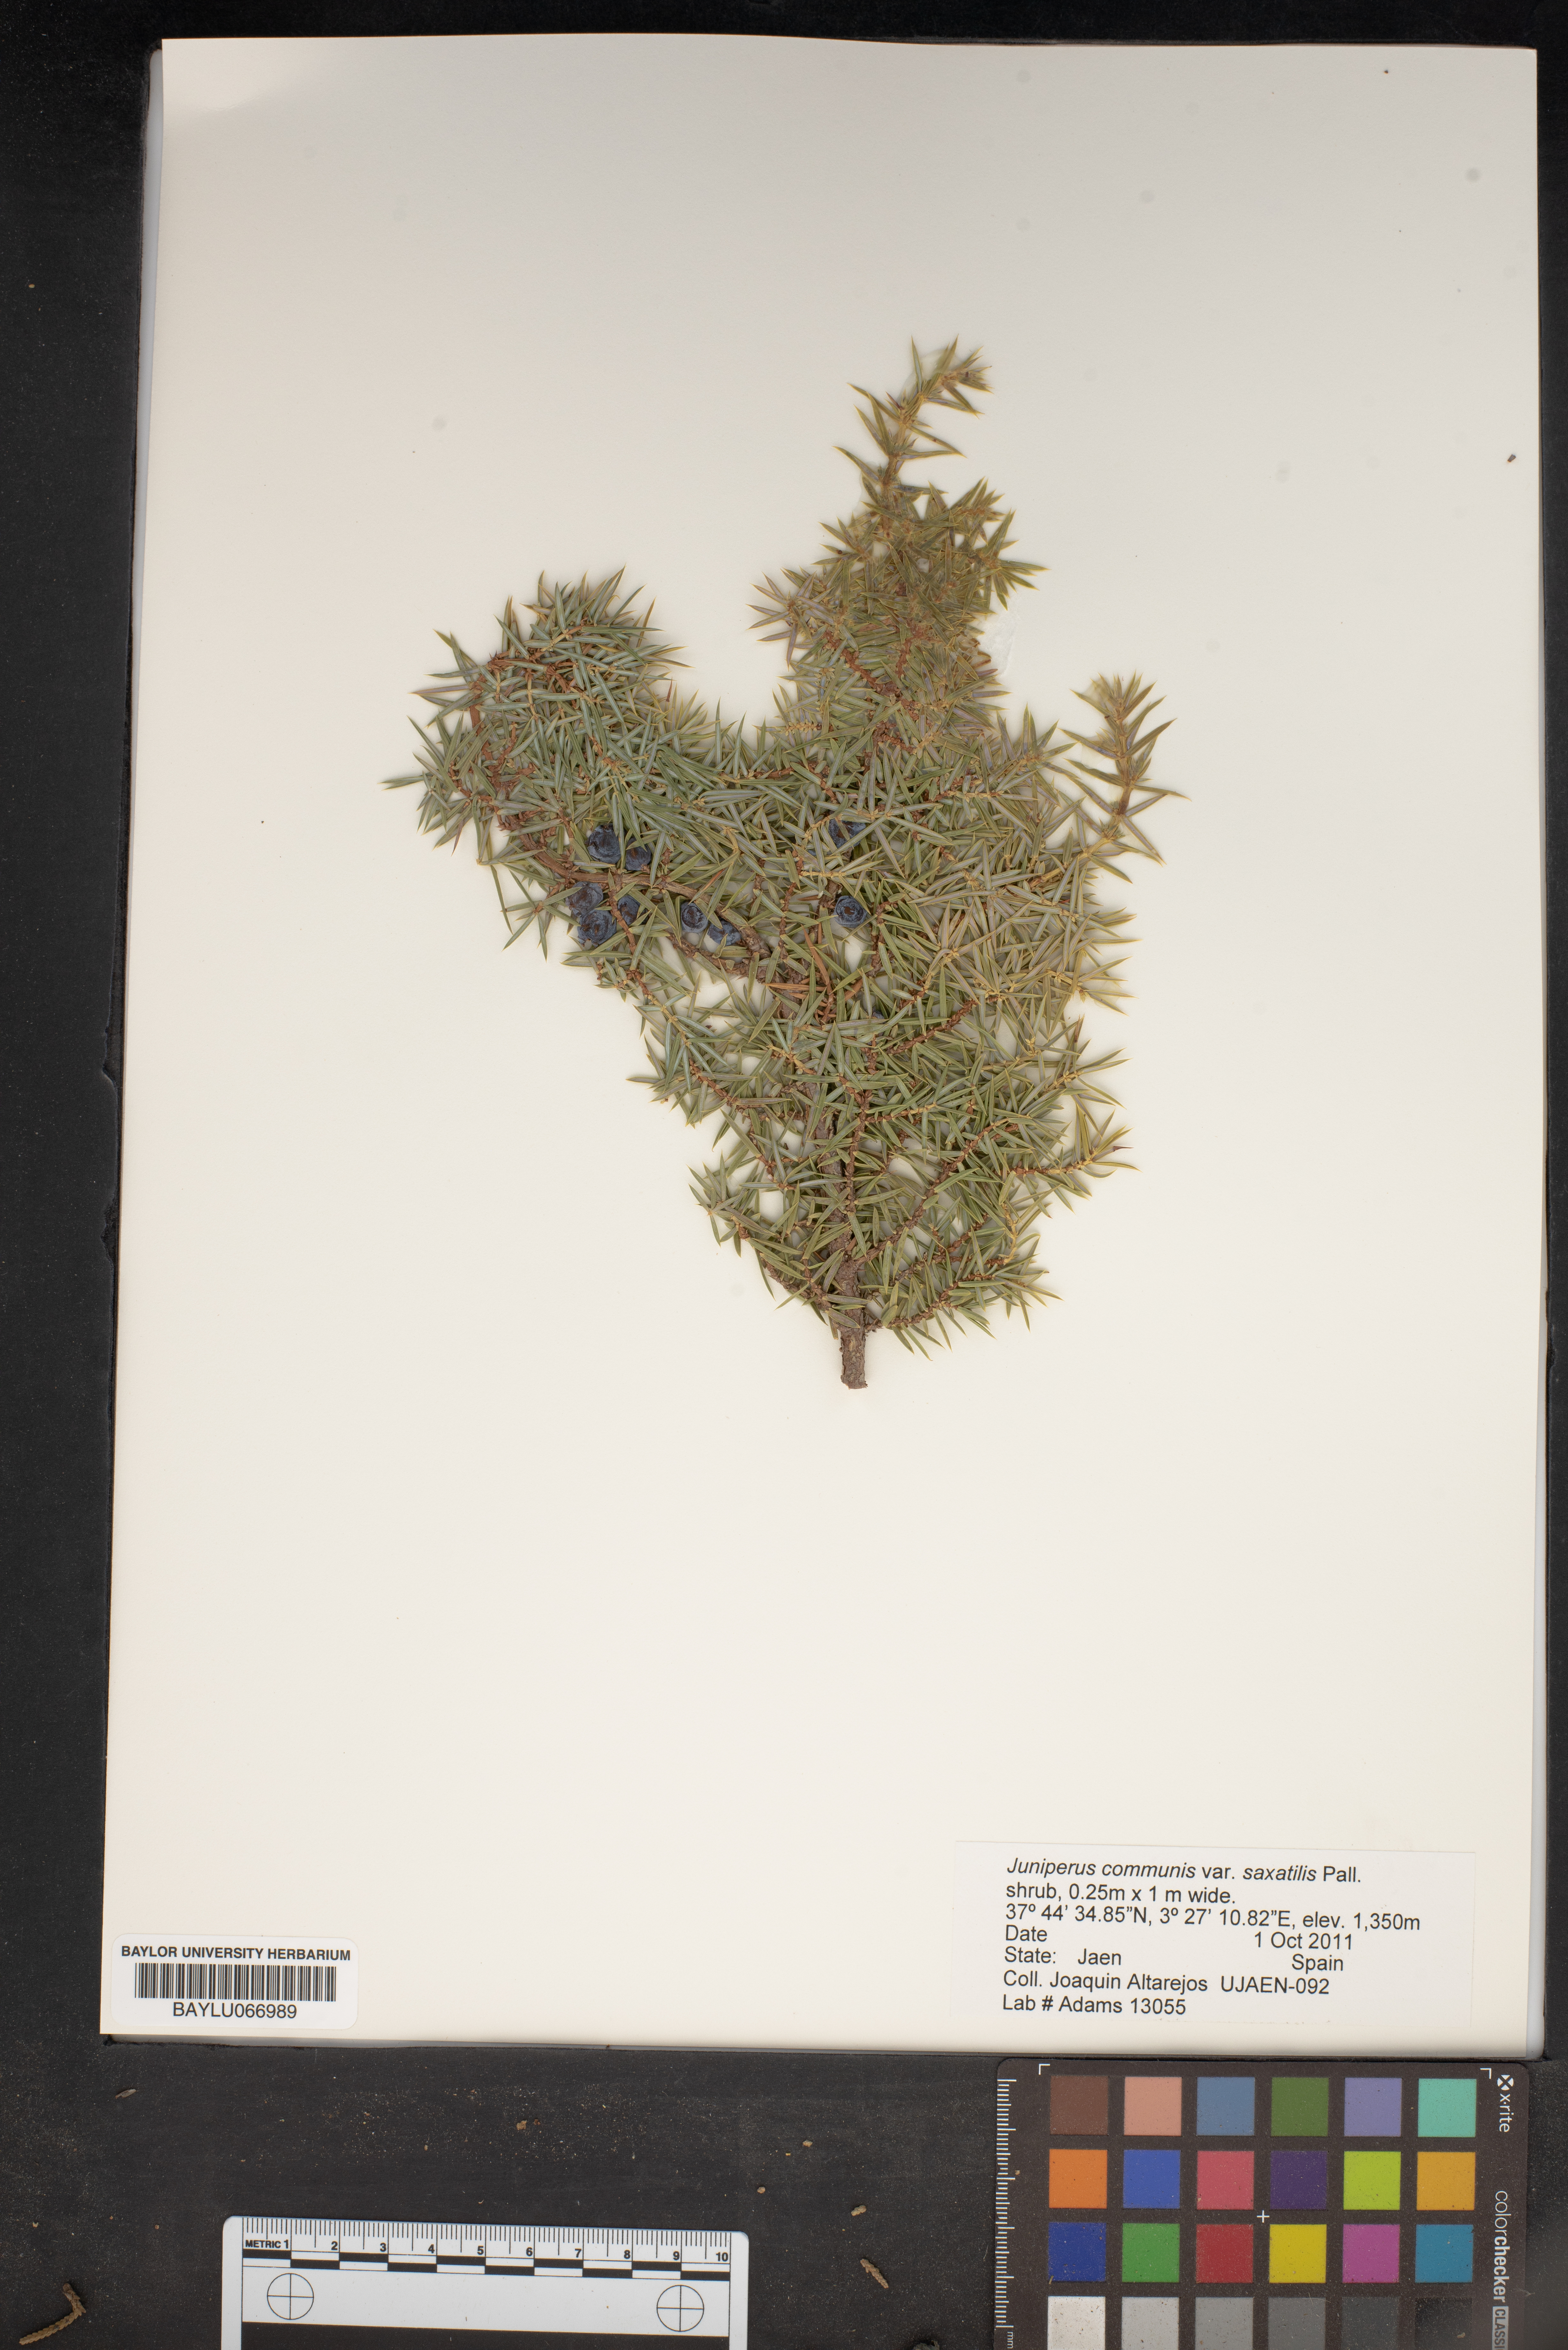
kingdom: Plantae
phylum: Tracheophyta
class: Pinopsida
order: Pinales
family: Cupressaceae
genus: Juniperus
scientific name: Juniperus communis
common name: Common juniper
